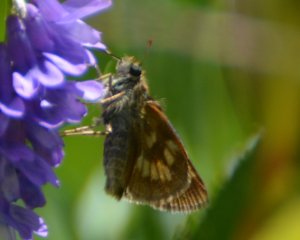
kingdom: Animalia
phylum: Arthropoda
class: Insecta
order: Lepidoptera
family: Hesperiidae
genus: Polites
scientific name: Polites
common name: Long Dash Skipper
